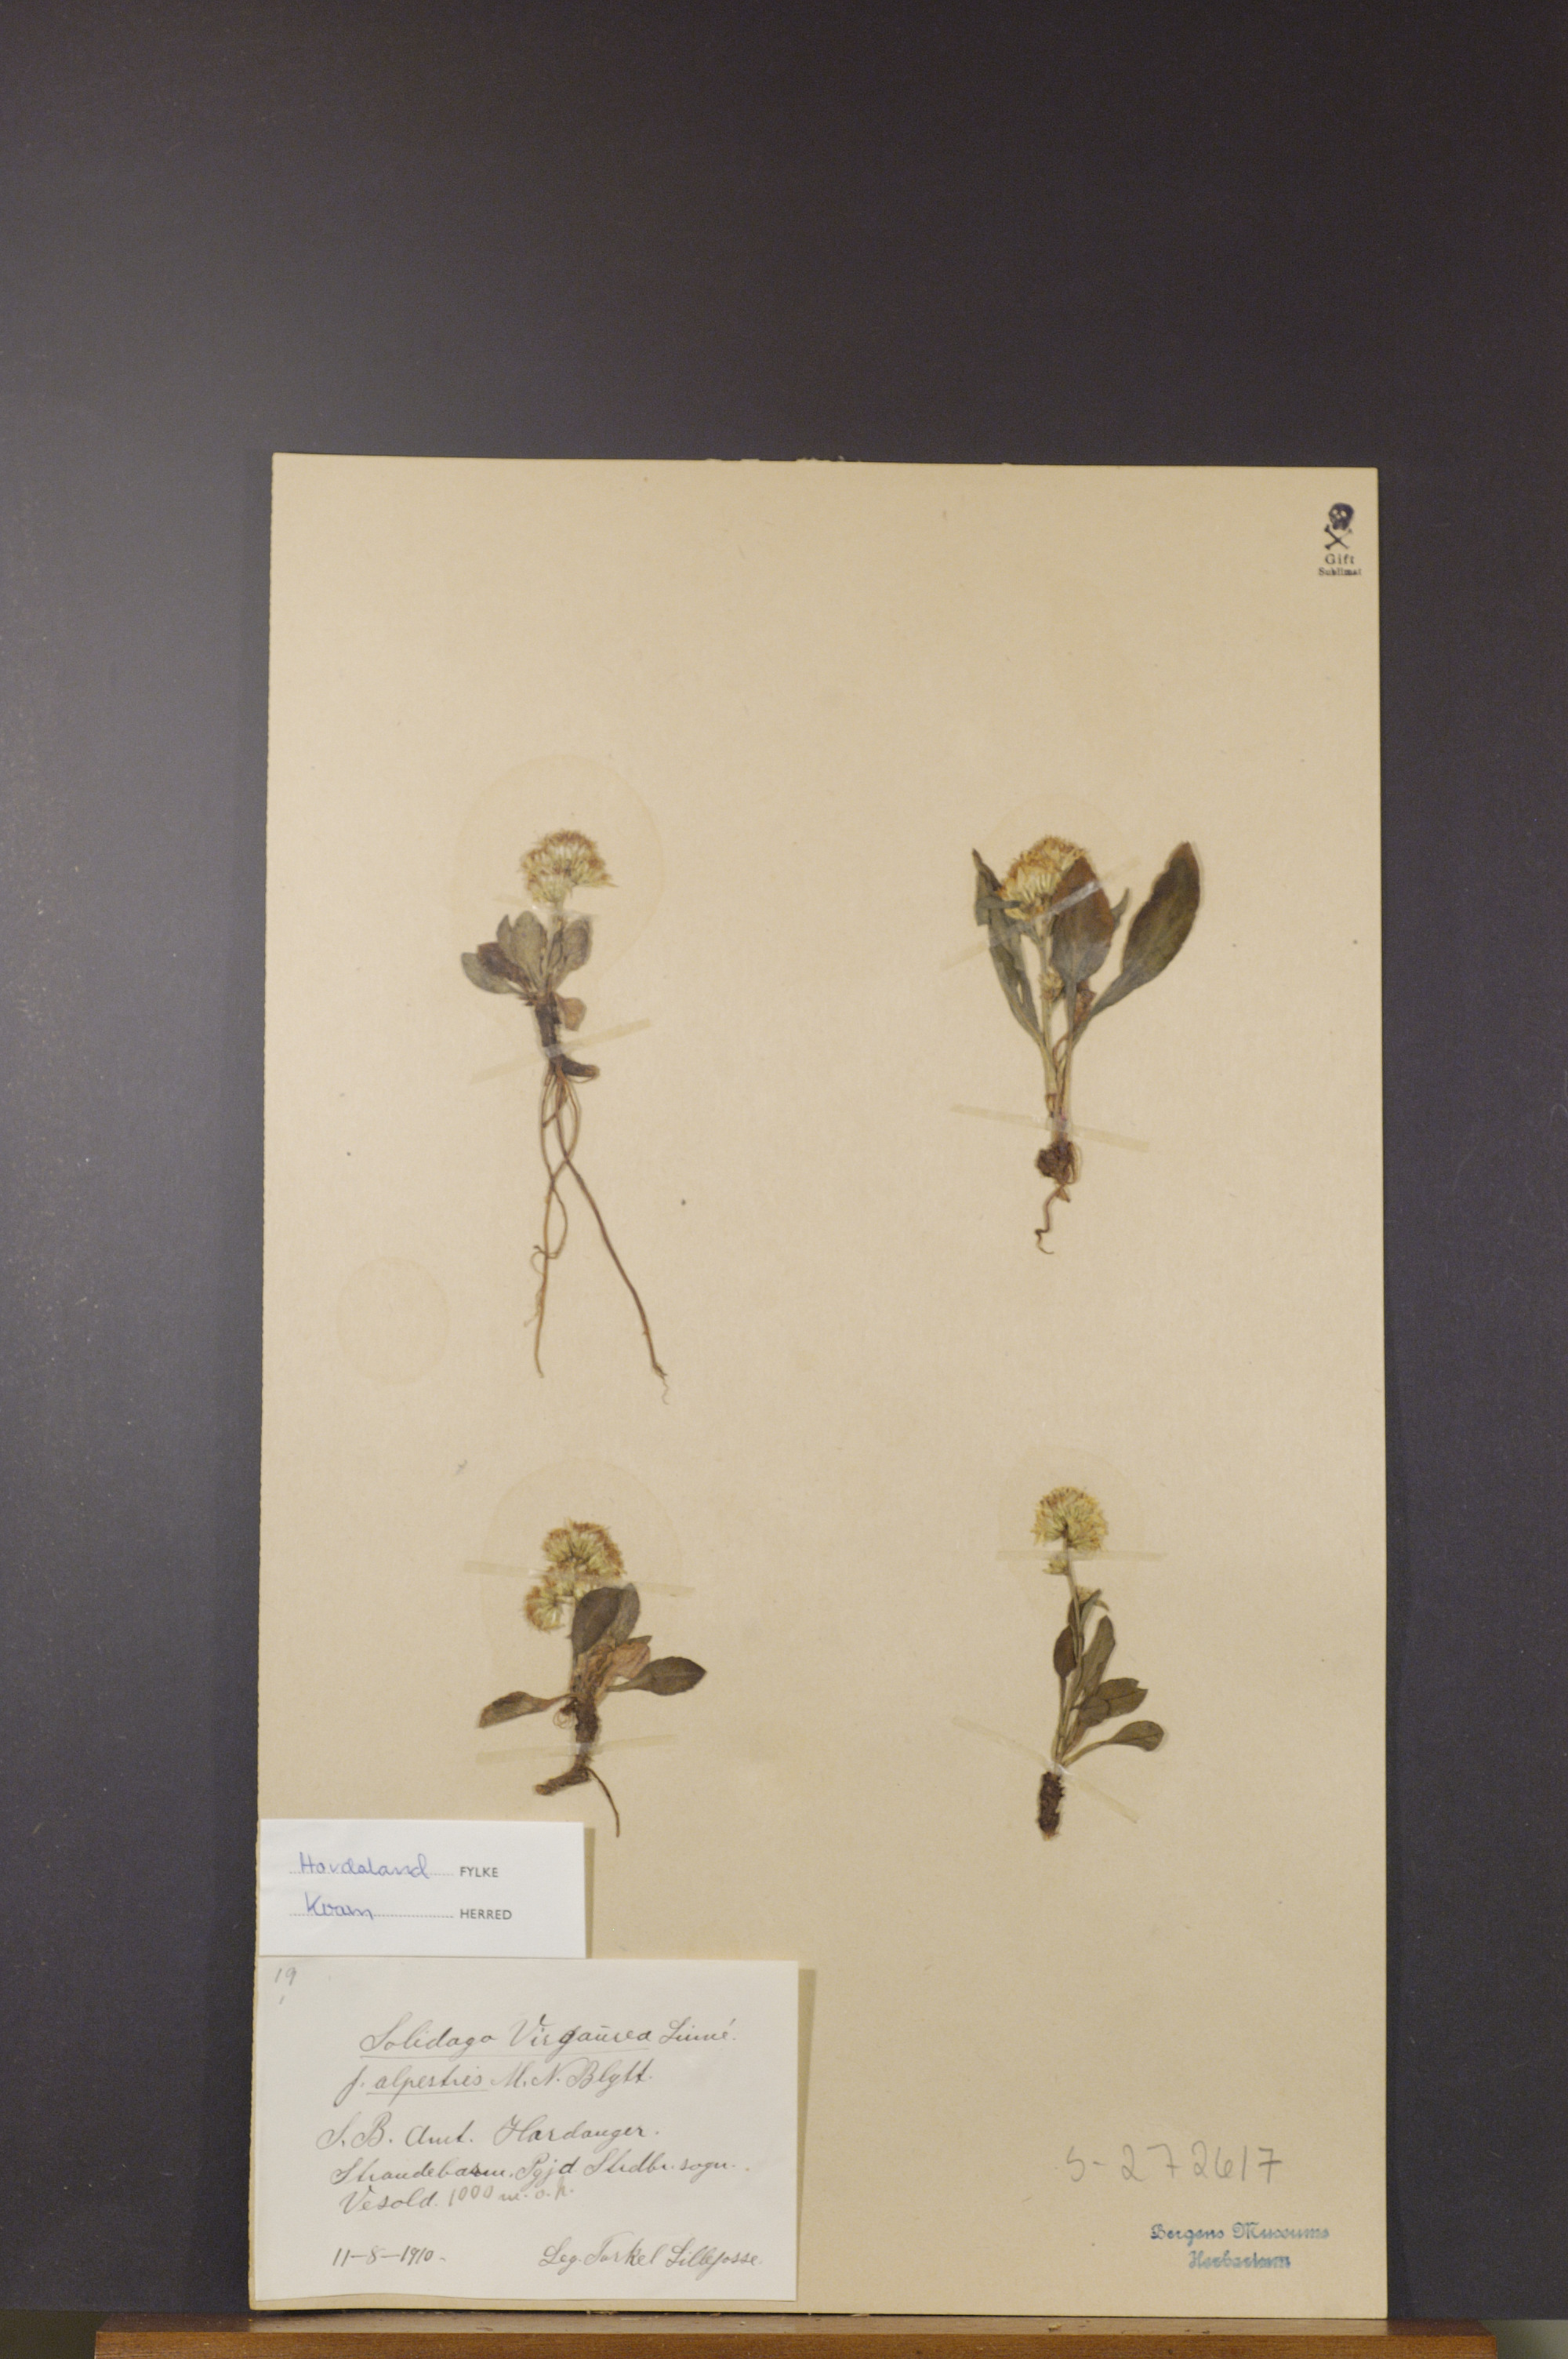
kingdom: Plantae
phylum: Tracheophyta
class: Magnoliopsida
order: Asterales
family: Asteraceae
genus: Solidago
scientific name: Solidago virgaurea
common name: Goldenrod
